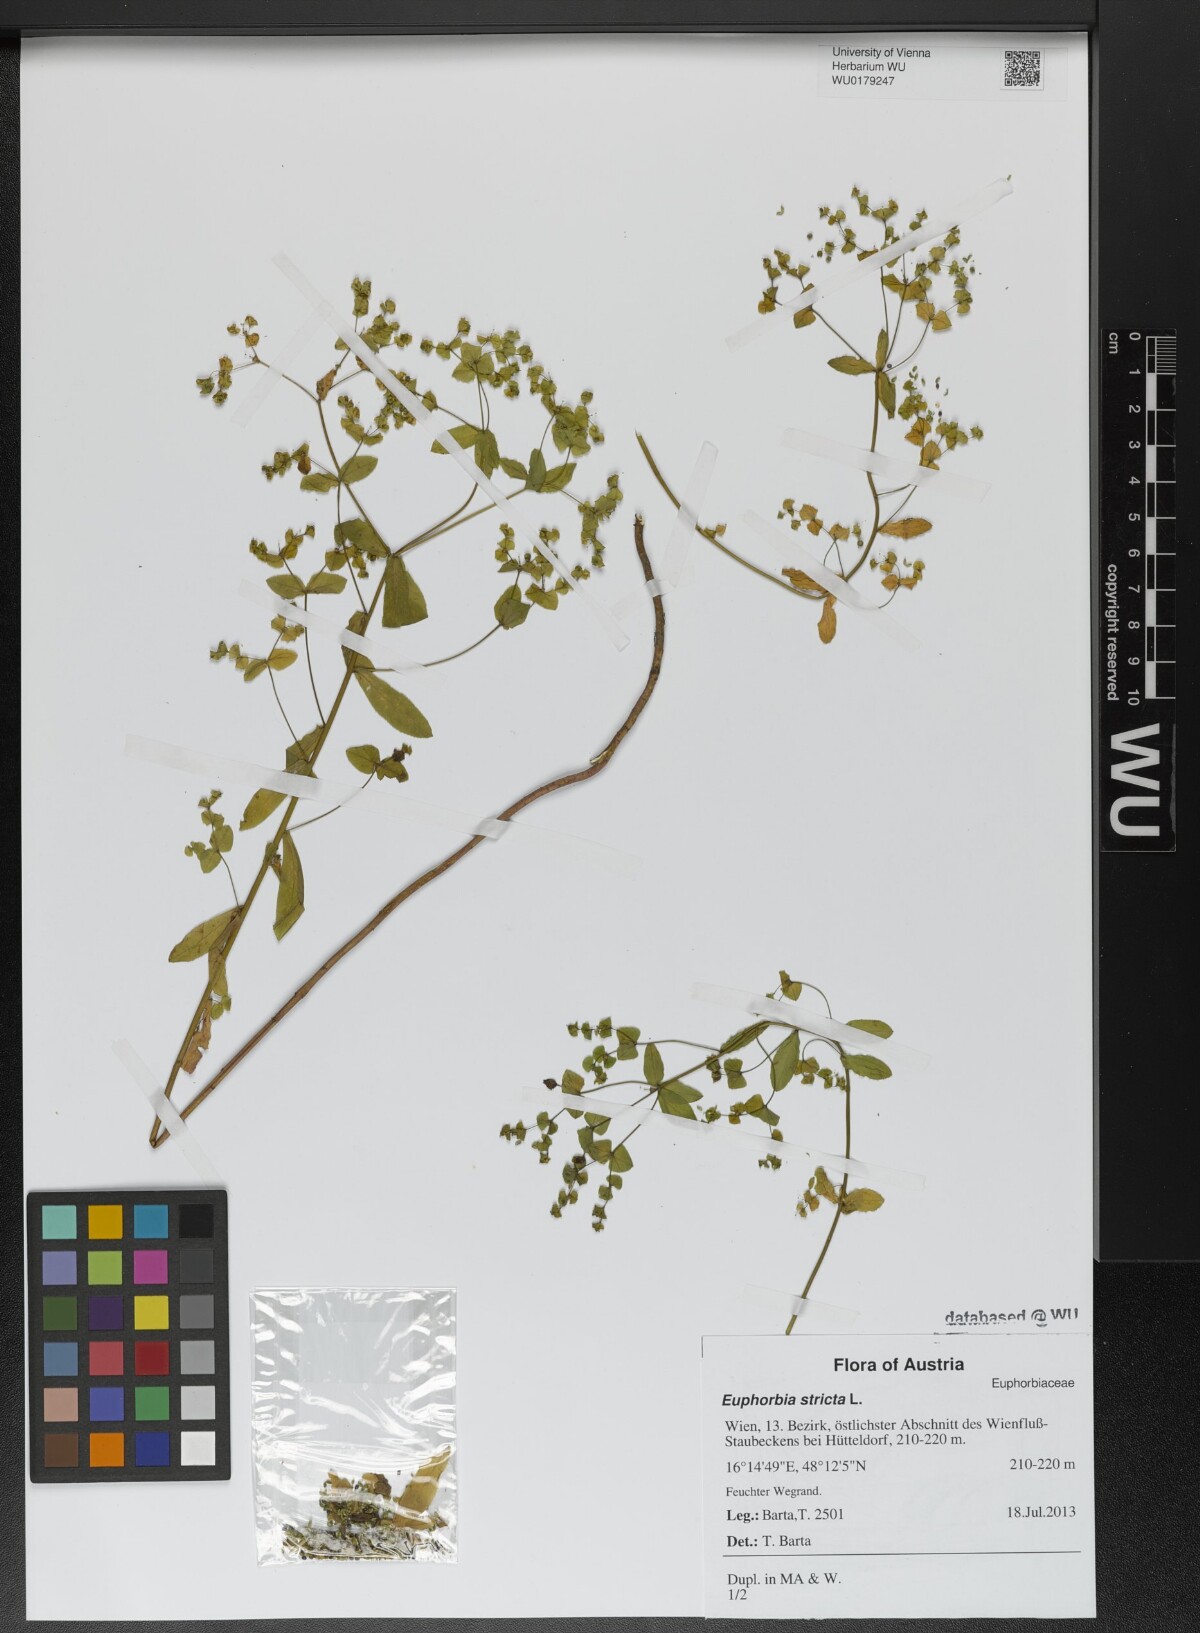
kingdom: Plantae
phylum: Tracheophyta
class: Magnoliopsida
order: Malpighiales
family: Euphorbiaceae
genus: Euphorbia
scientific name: Euphorbia stricta
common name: Upright spurge
